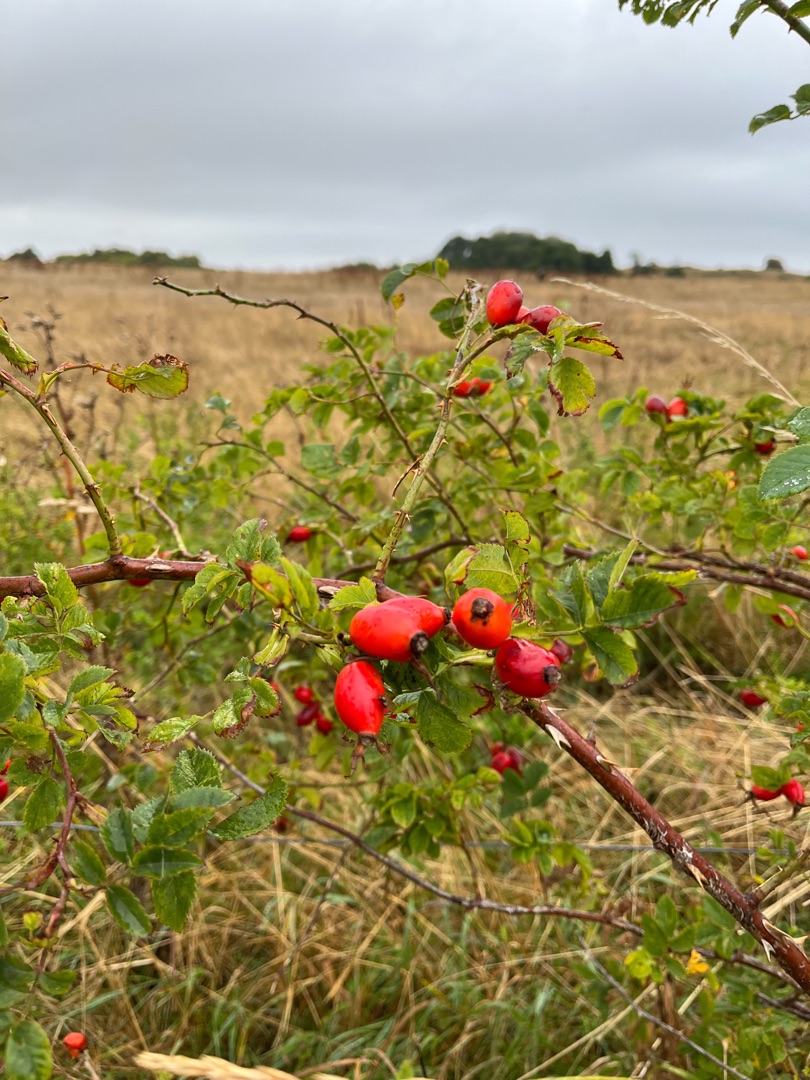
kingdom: Plantae
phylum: Tracheophyta
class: Magnoliopsida
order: Rosales
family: Rosaceae
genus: Rosa
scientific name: Rosa canina
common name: Glat hunde-rose
